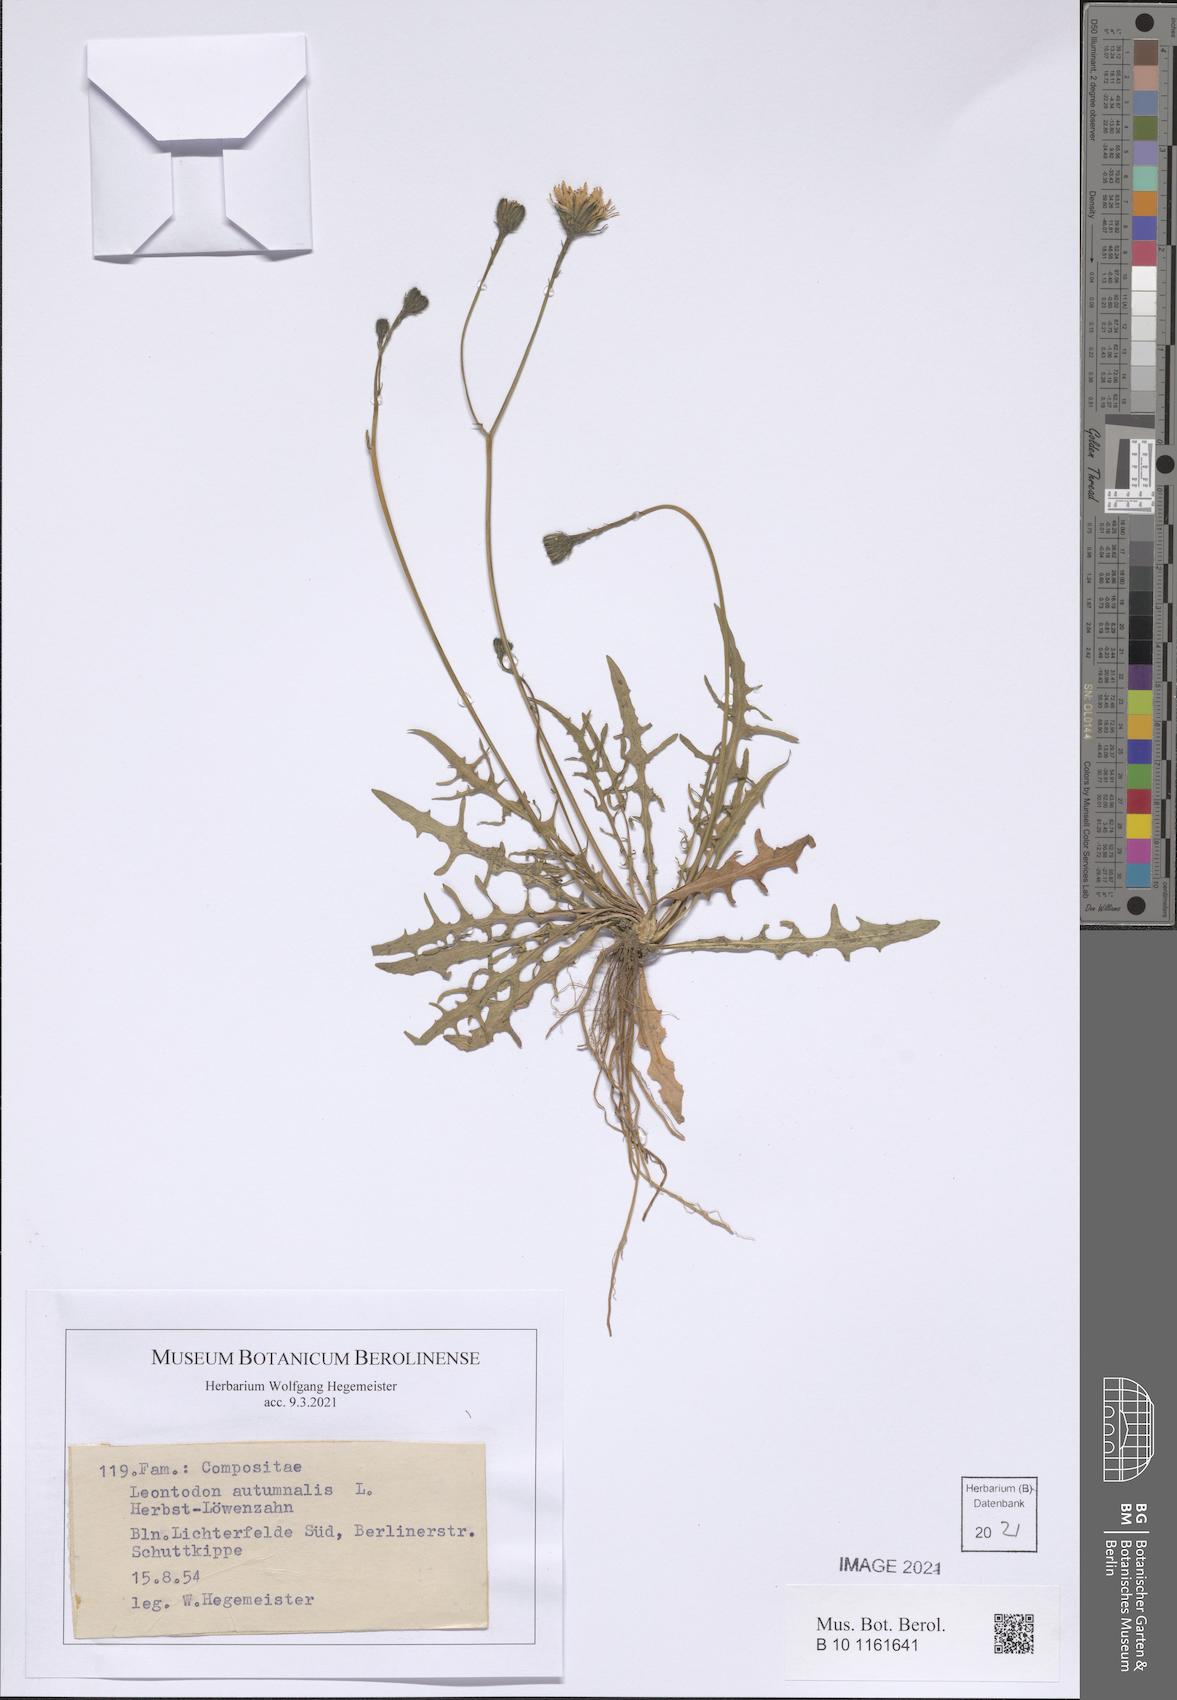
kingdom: Plantae
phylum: Tracheophyta
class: Magnoliopsida
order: Asterales
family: Asteraceae
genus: Scorzoneroides
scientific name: Scorzoneroides autumnalis
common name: Autumn hawkbit
